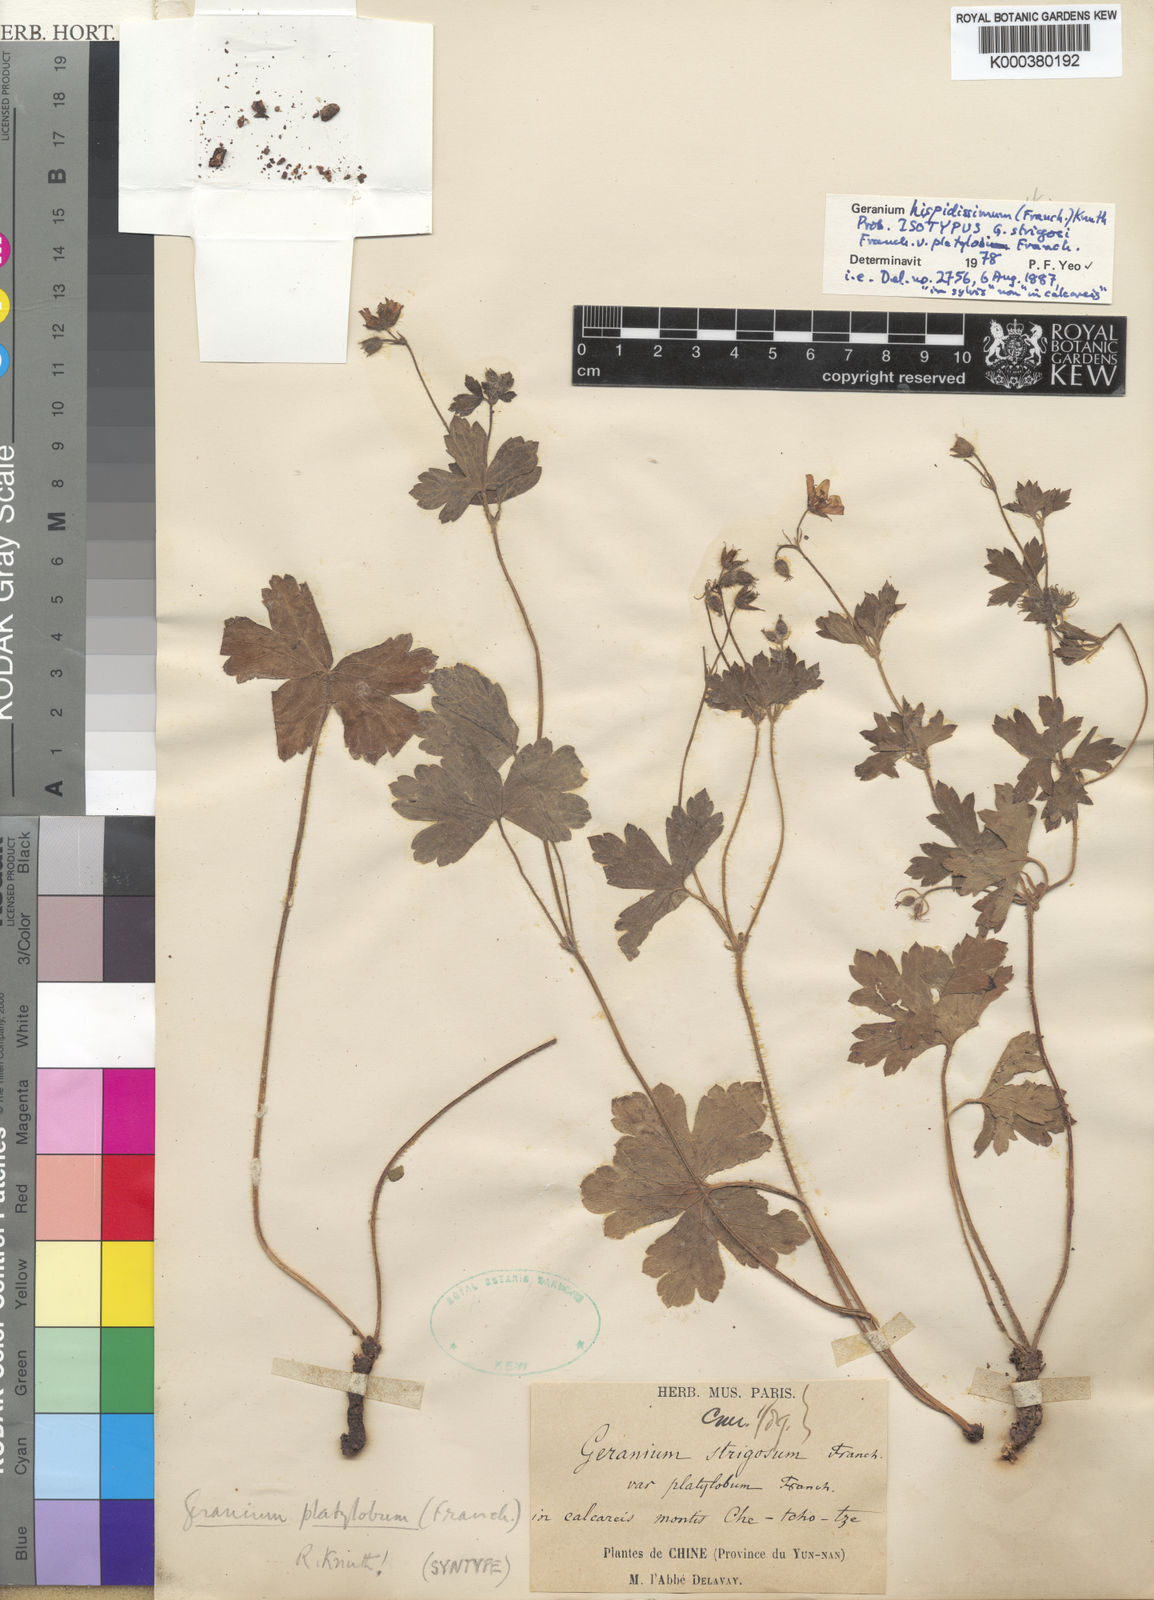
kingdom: Plantae
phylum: Tracheophyta
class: Magnoliopsida
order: Geraniales
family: Geraniaceae
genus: Geranium
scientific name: Geranium hispidissimum
